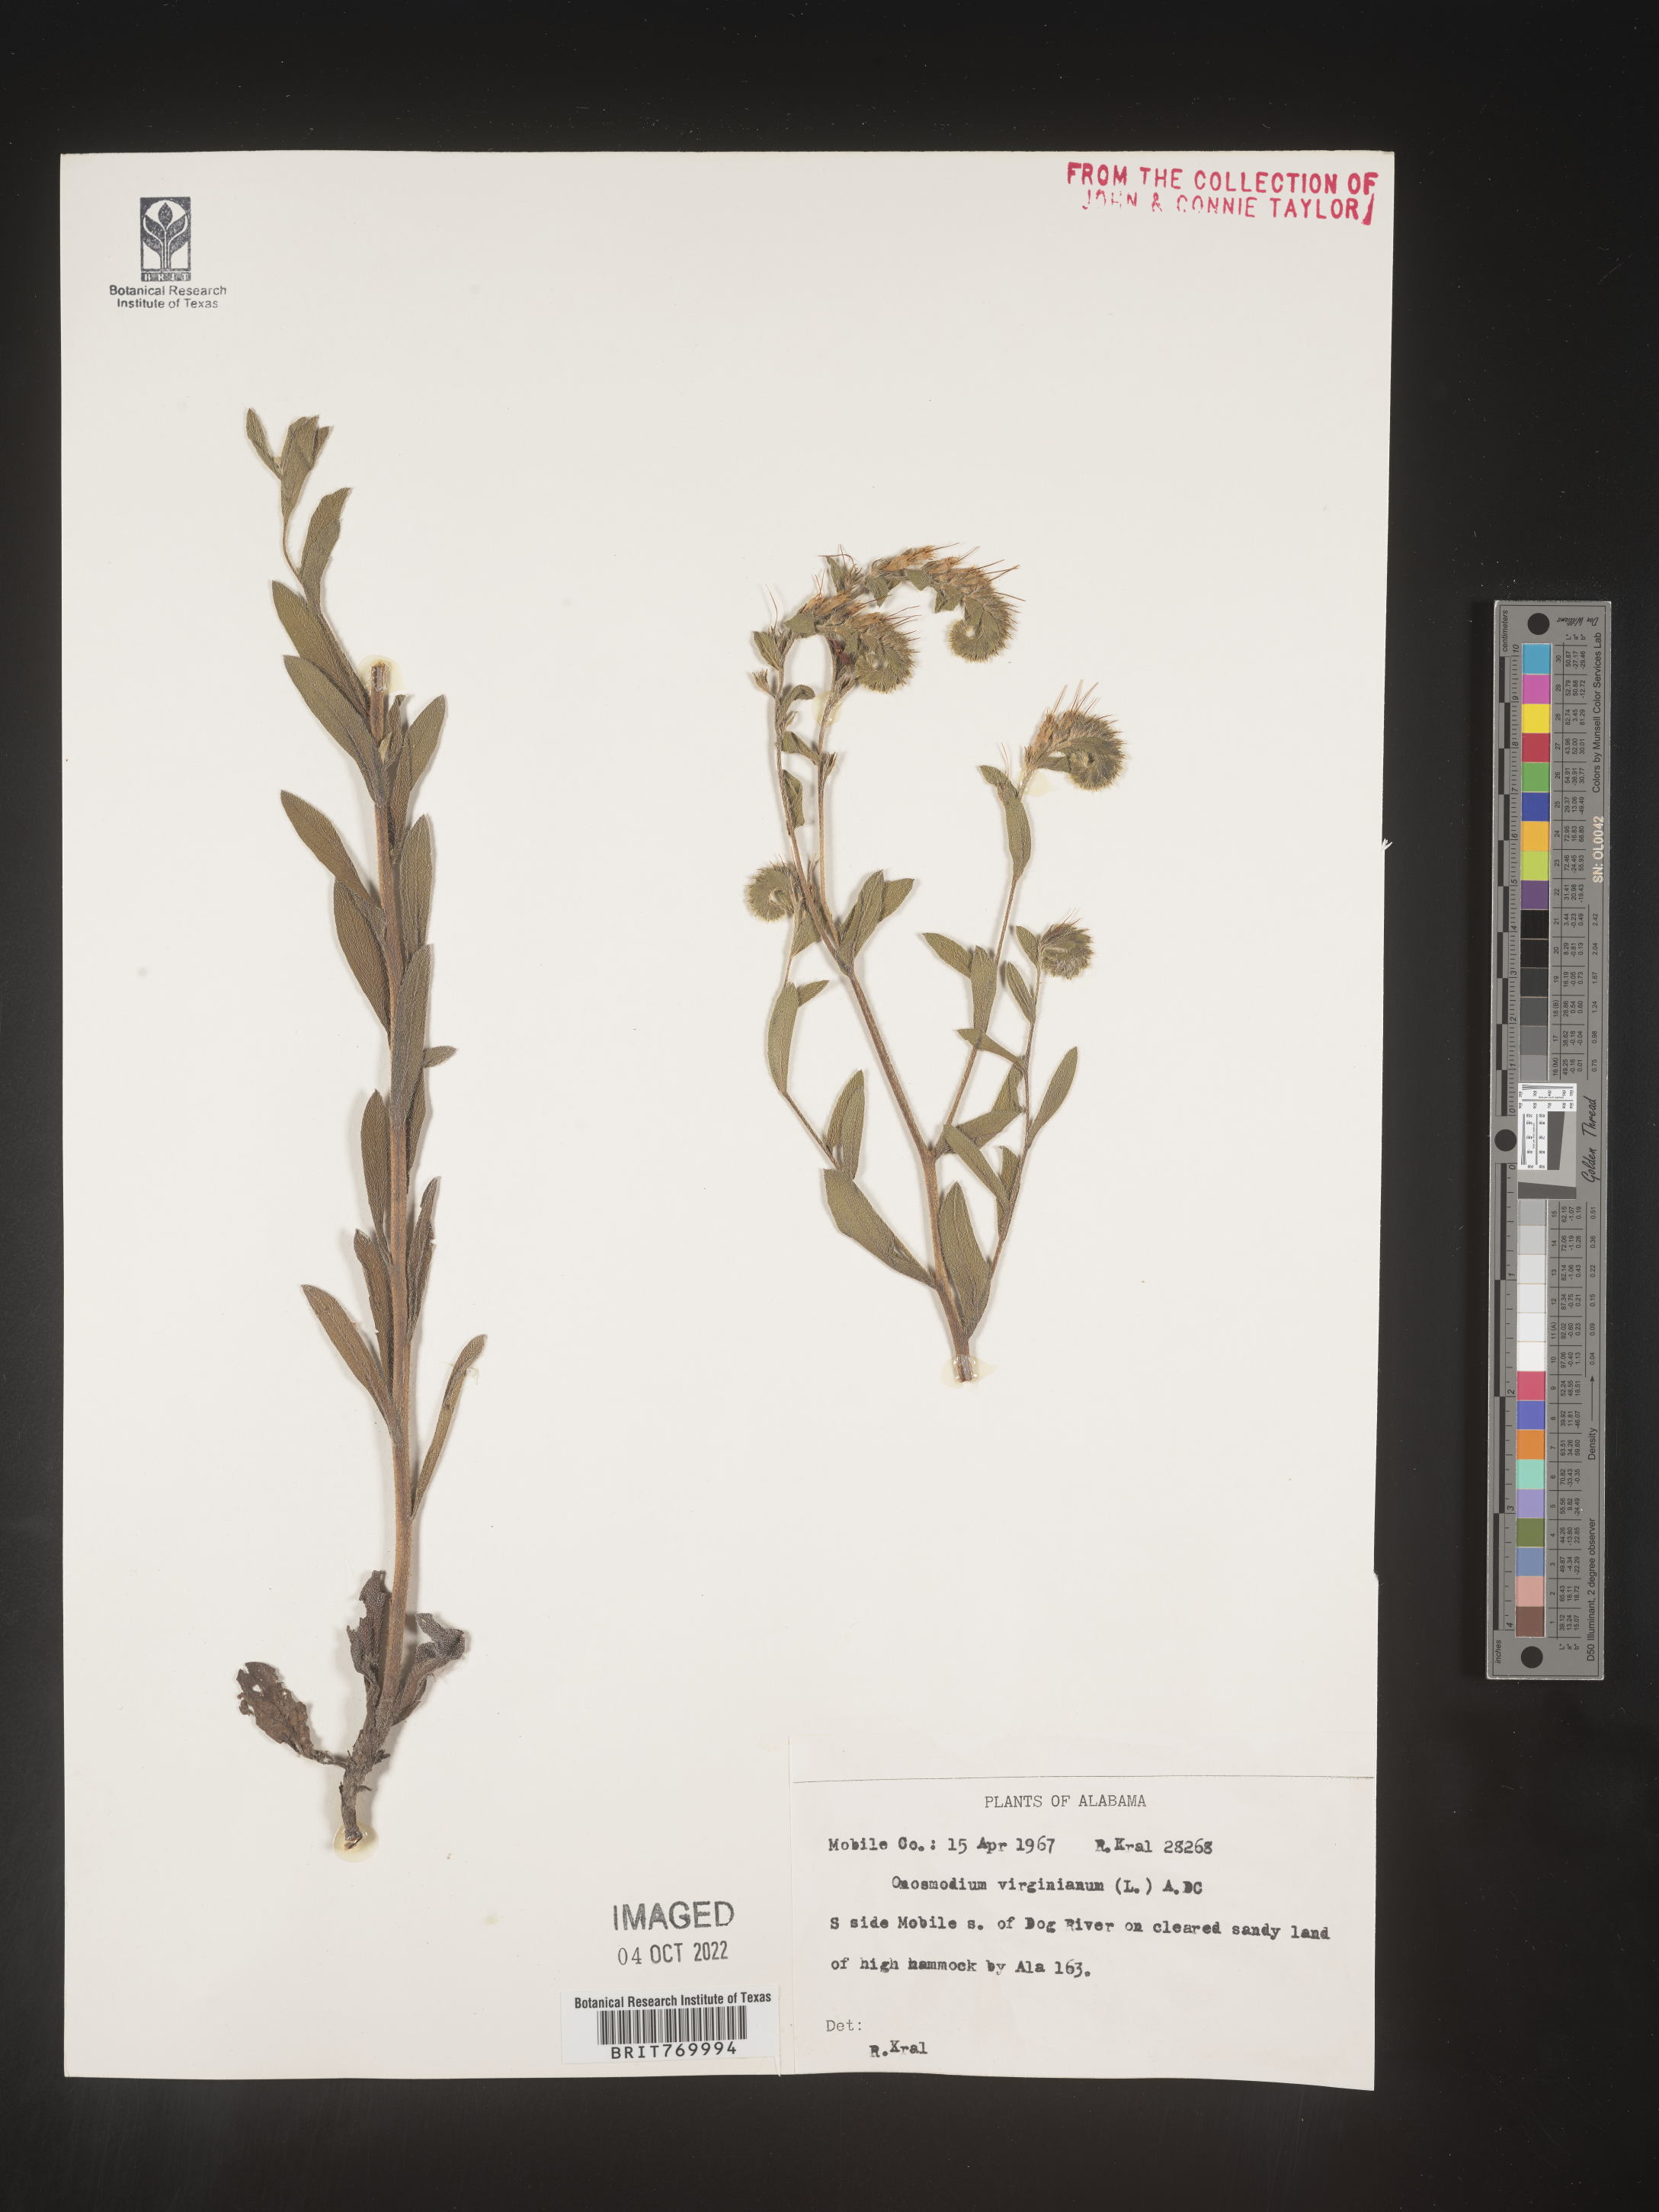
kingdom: Plantae
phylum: Tracheophyta
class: Magnoliopsida
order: Boraginales
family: Boraginaceae
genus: Lithospermum
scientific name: Lithospermum virginianum
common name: Eastern false gromwell
